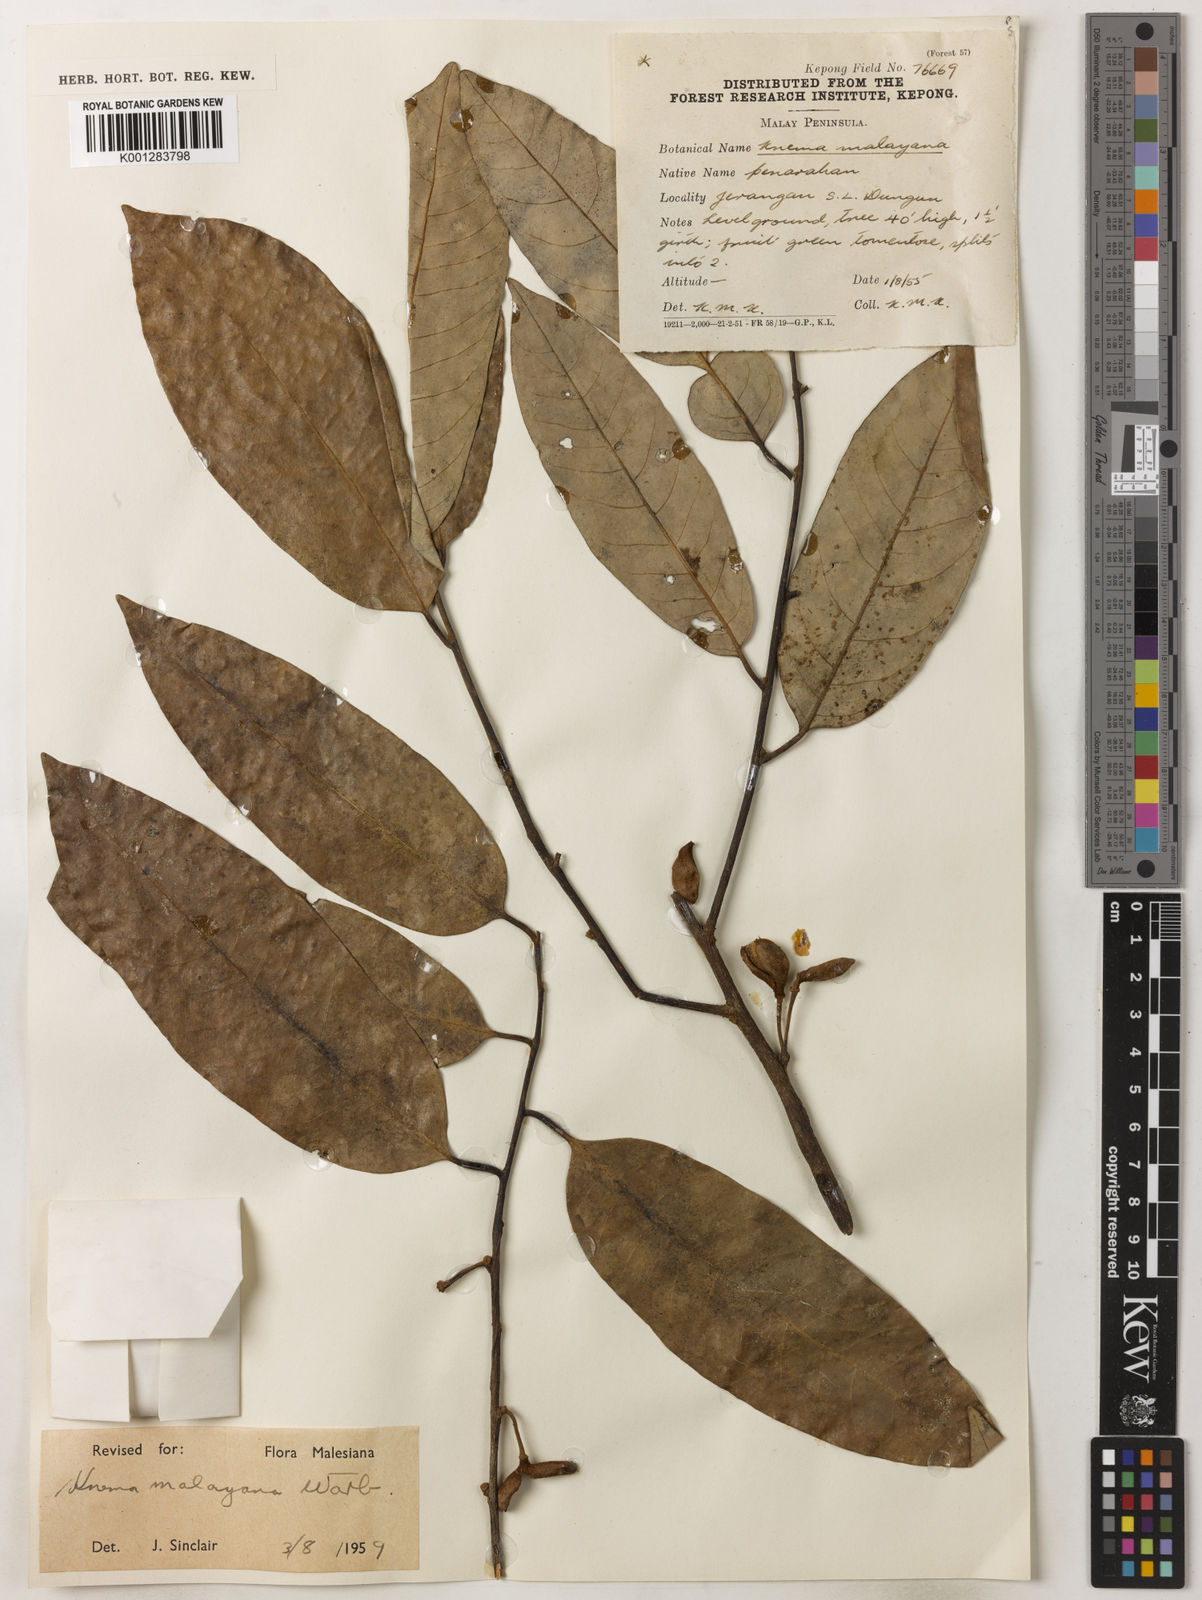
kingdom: Plantae
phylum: Tracheophyta
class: Magnoliopsida
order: Magnoliales
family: Myristicaceae
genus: Knema
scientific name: Knema malayana
